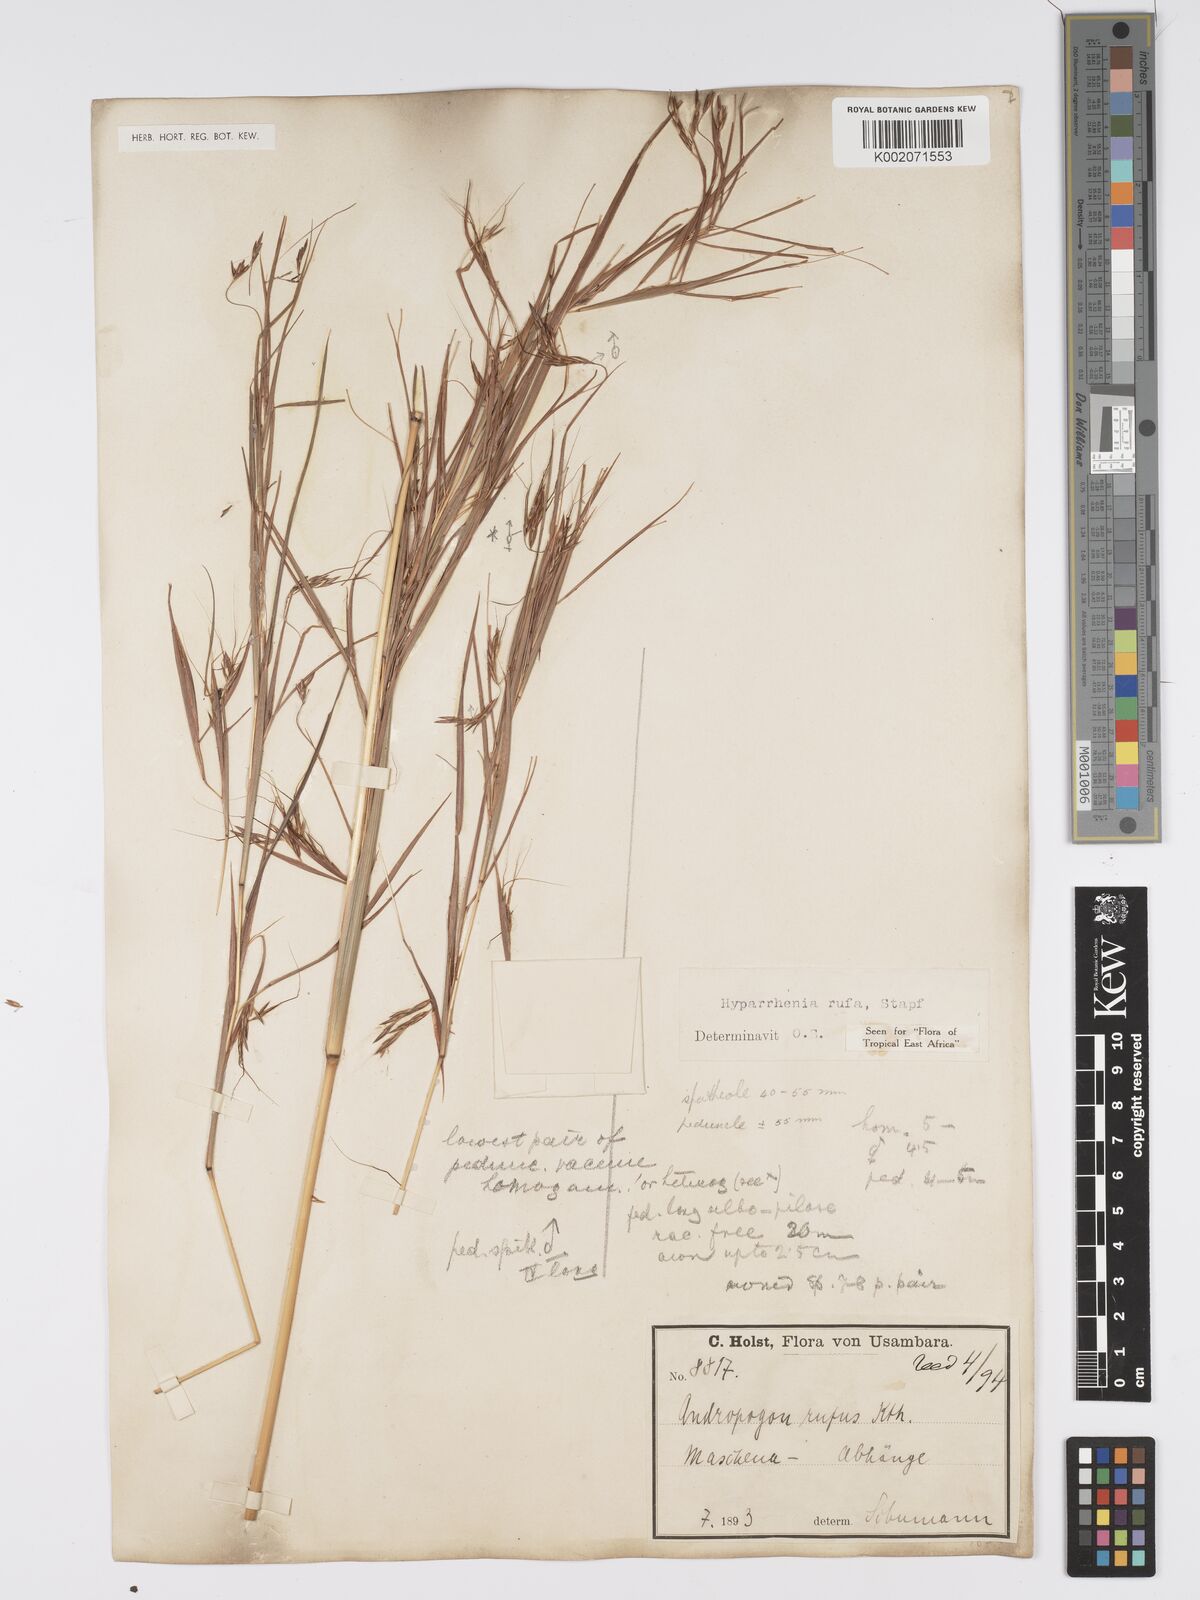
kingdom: Plantae
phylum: Tracheophyta
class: Liliopsida
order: Poales
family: Poaceae
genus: Hyparrhenia
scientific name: Hyparrhenia rufa
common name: Jaraguagrass
